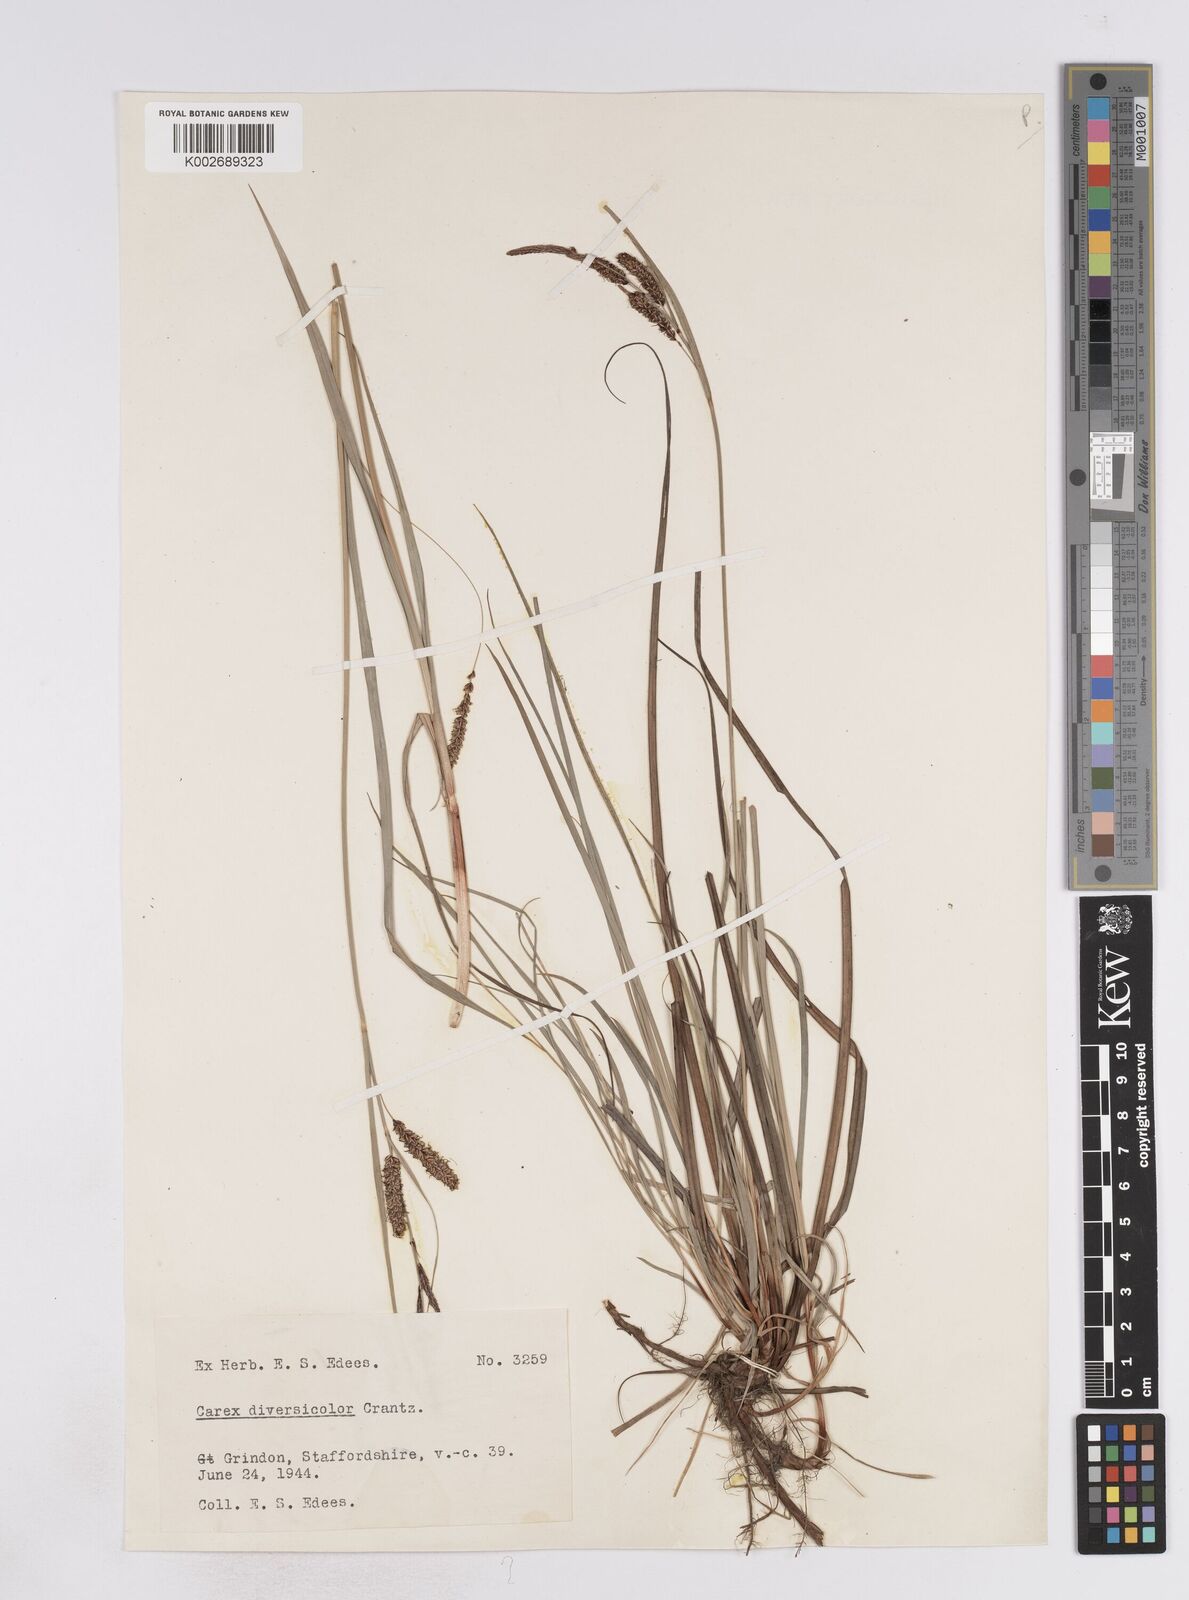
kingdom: Plantae
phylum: Tracheophyta
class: Liliopsida
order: Poales
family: Cyperaceae
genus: Carex
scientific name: Carex flacca
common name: Glaucous sedge
